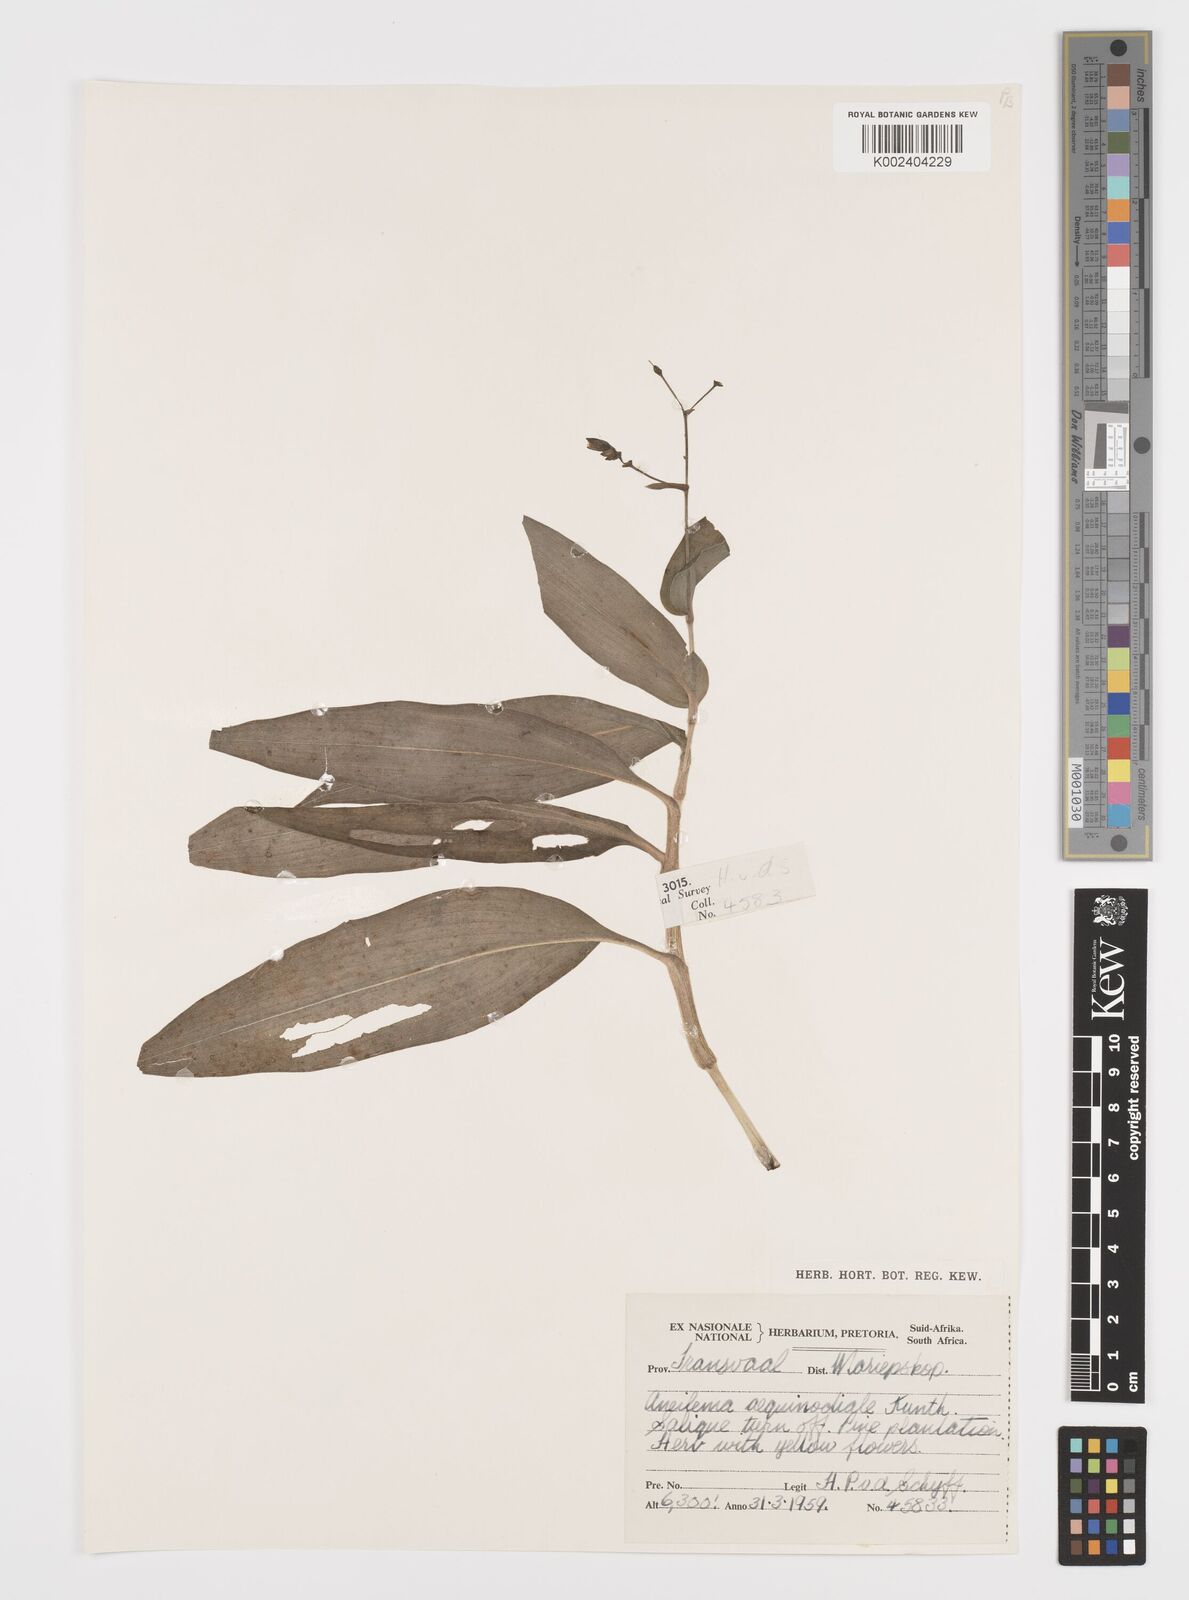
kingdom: Plantae
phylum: Tracheophyta
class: Liliopsida
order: Commelinales
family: Commelinaceae
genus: Aneilema
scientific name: Aneilema aequinoctiale
